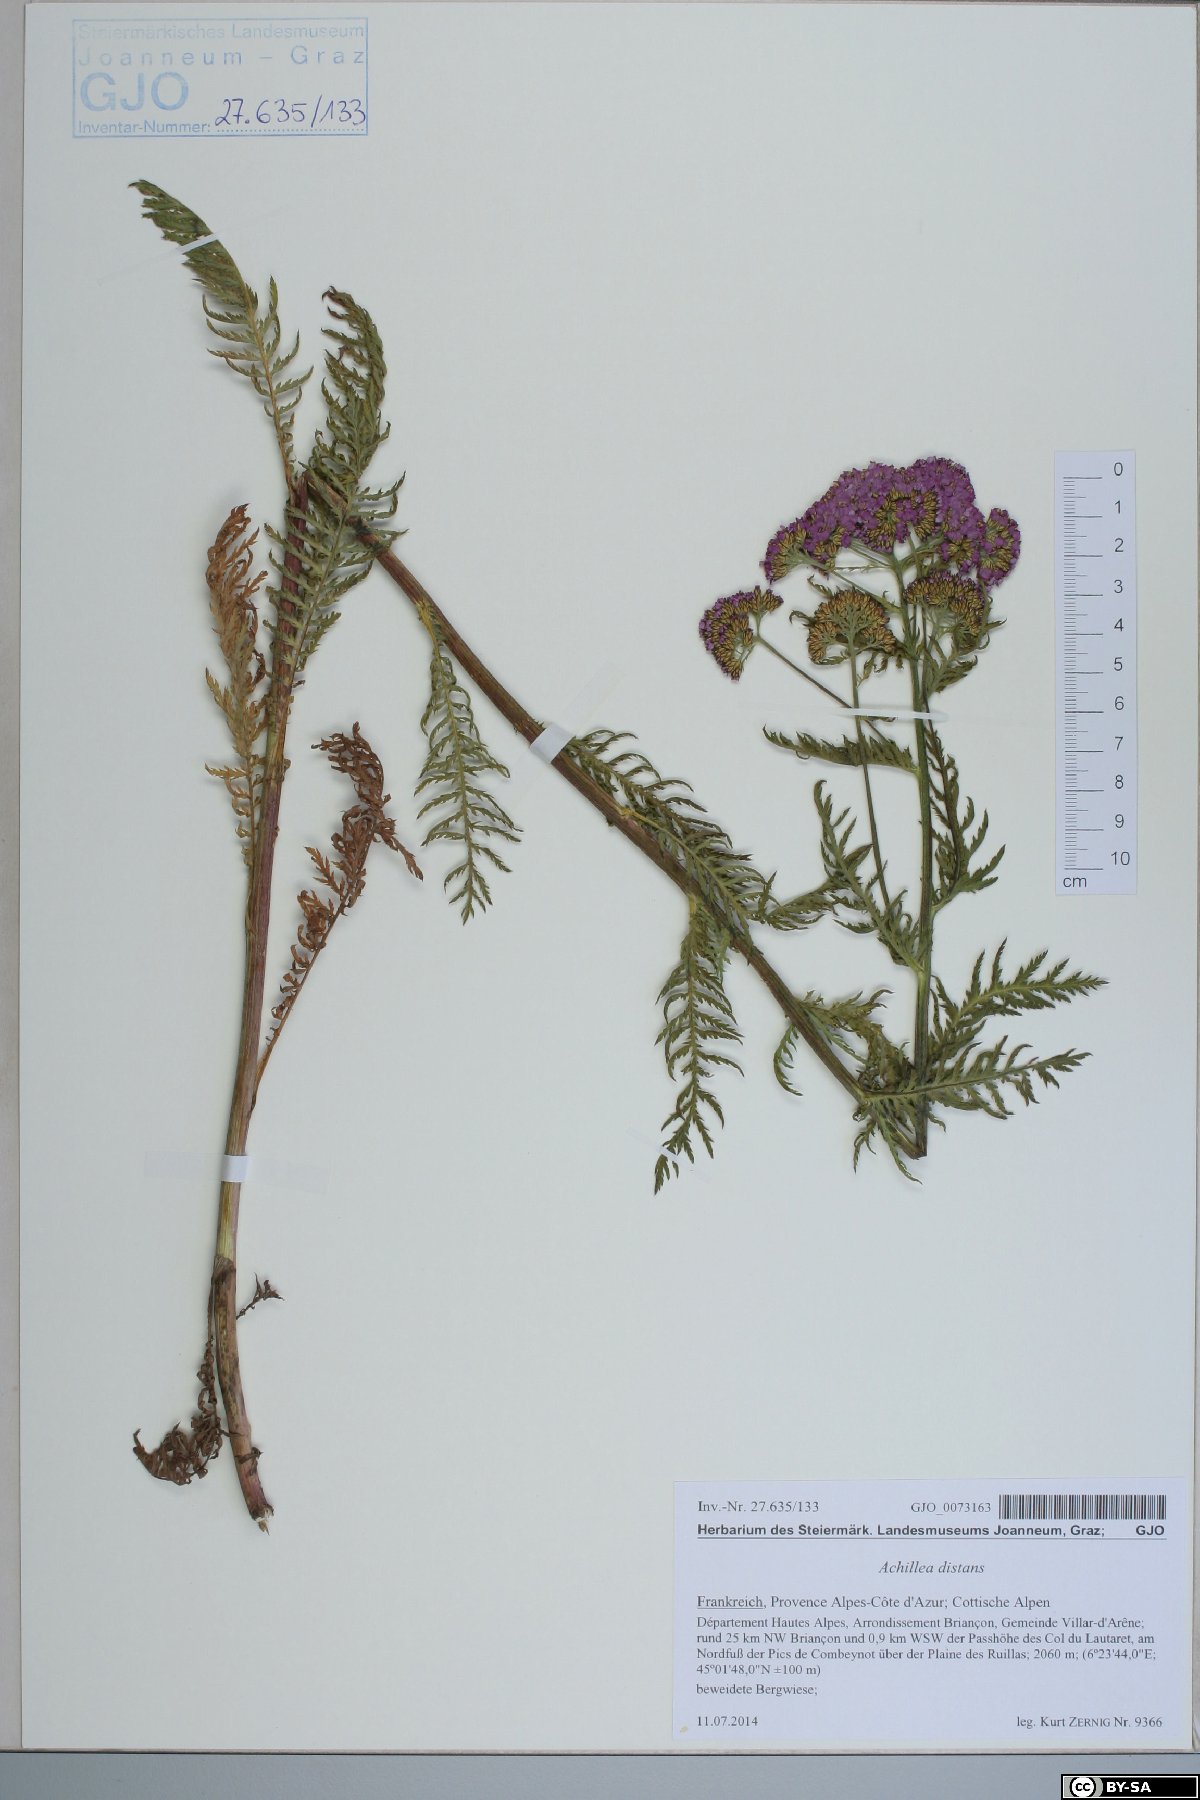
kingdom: Plantae
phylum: Tracheophyta
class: Magnoliopsida
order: Asterales
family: Asteraceae
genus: Achillea
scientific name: Achillea distans
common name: Tall yarrow
